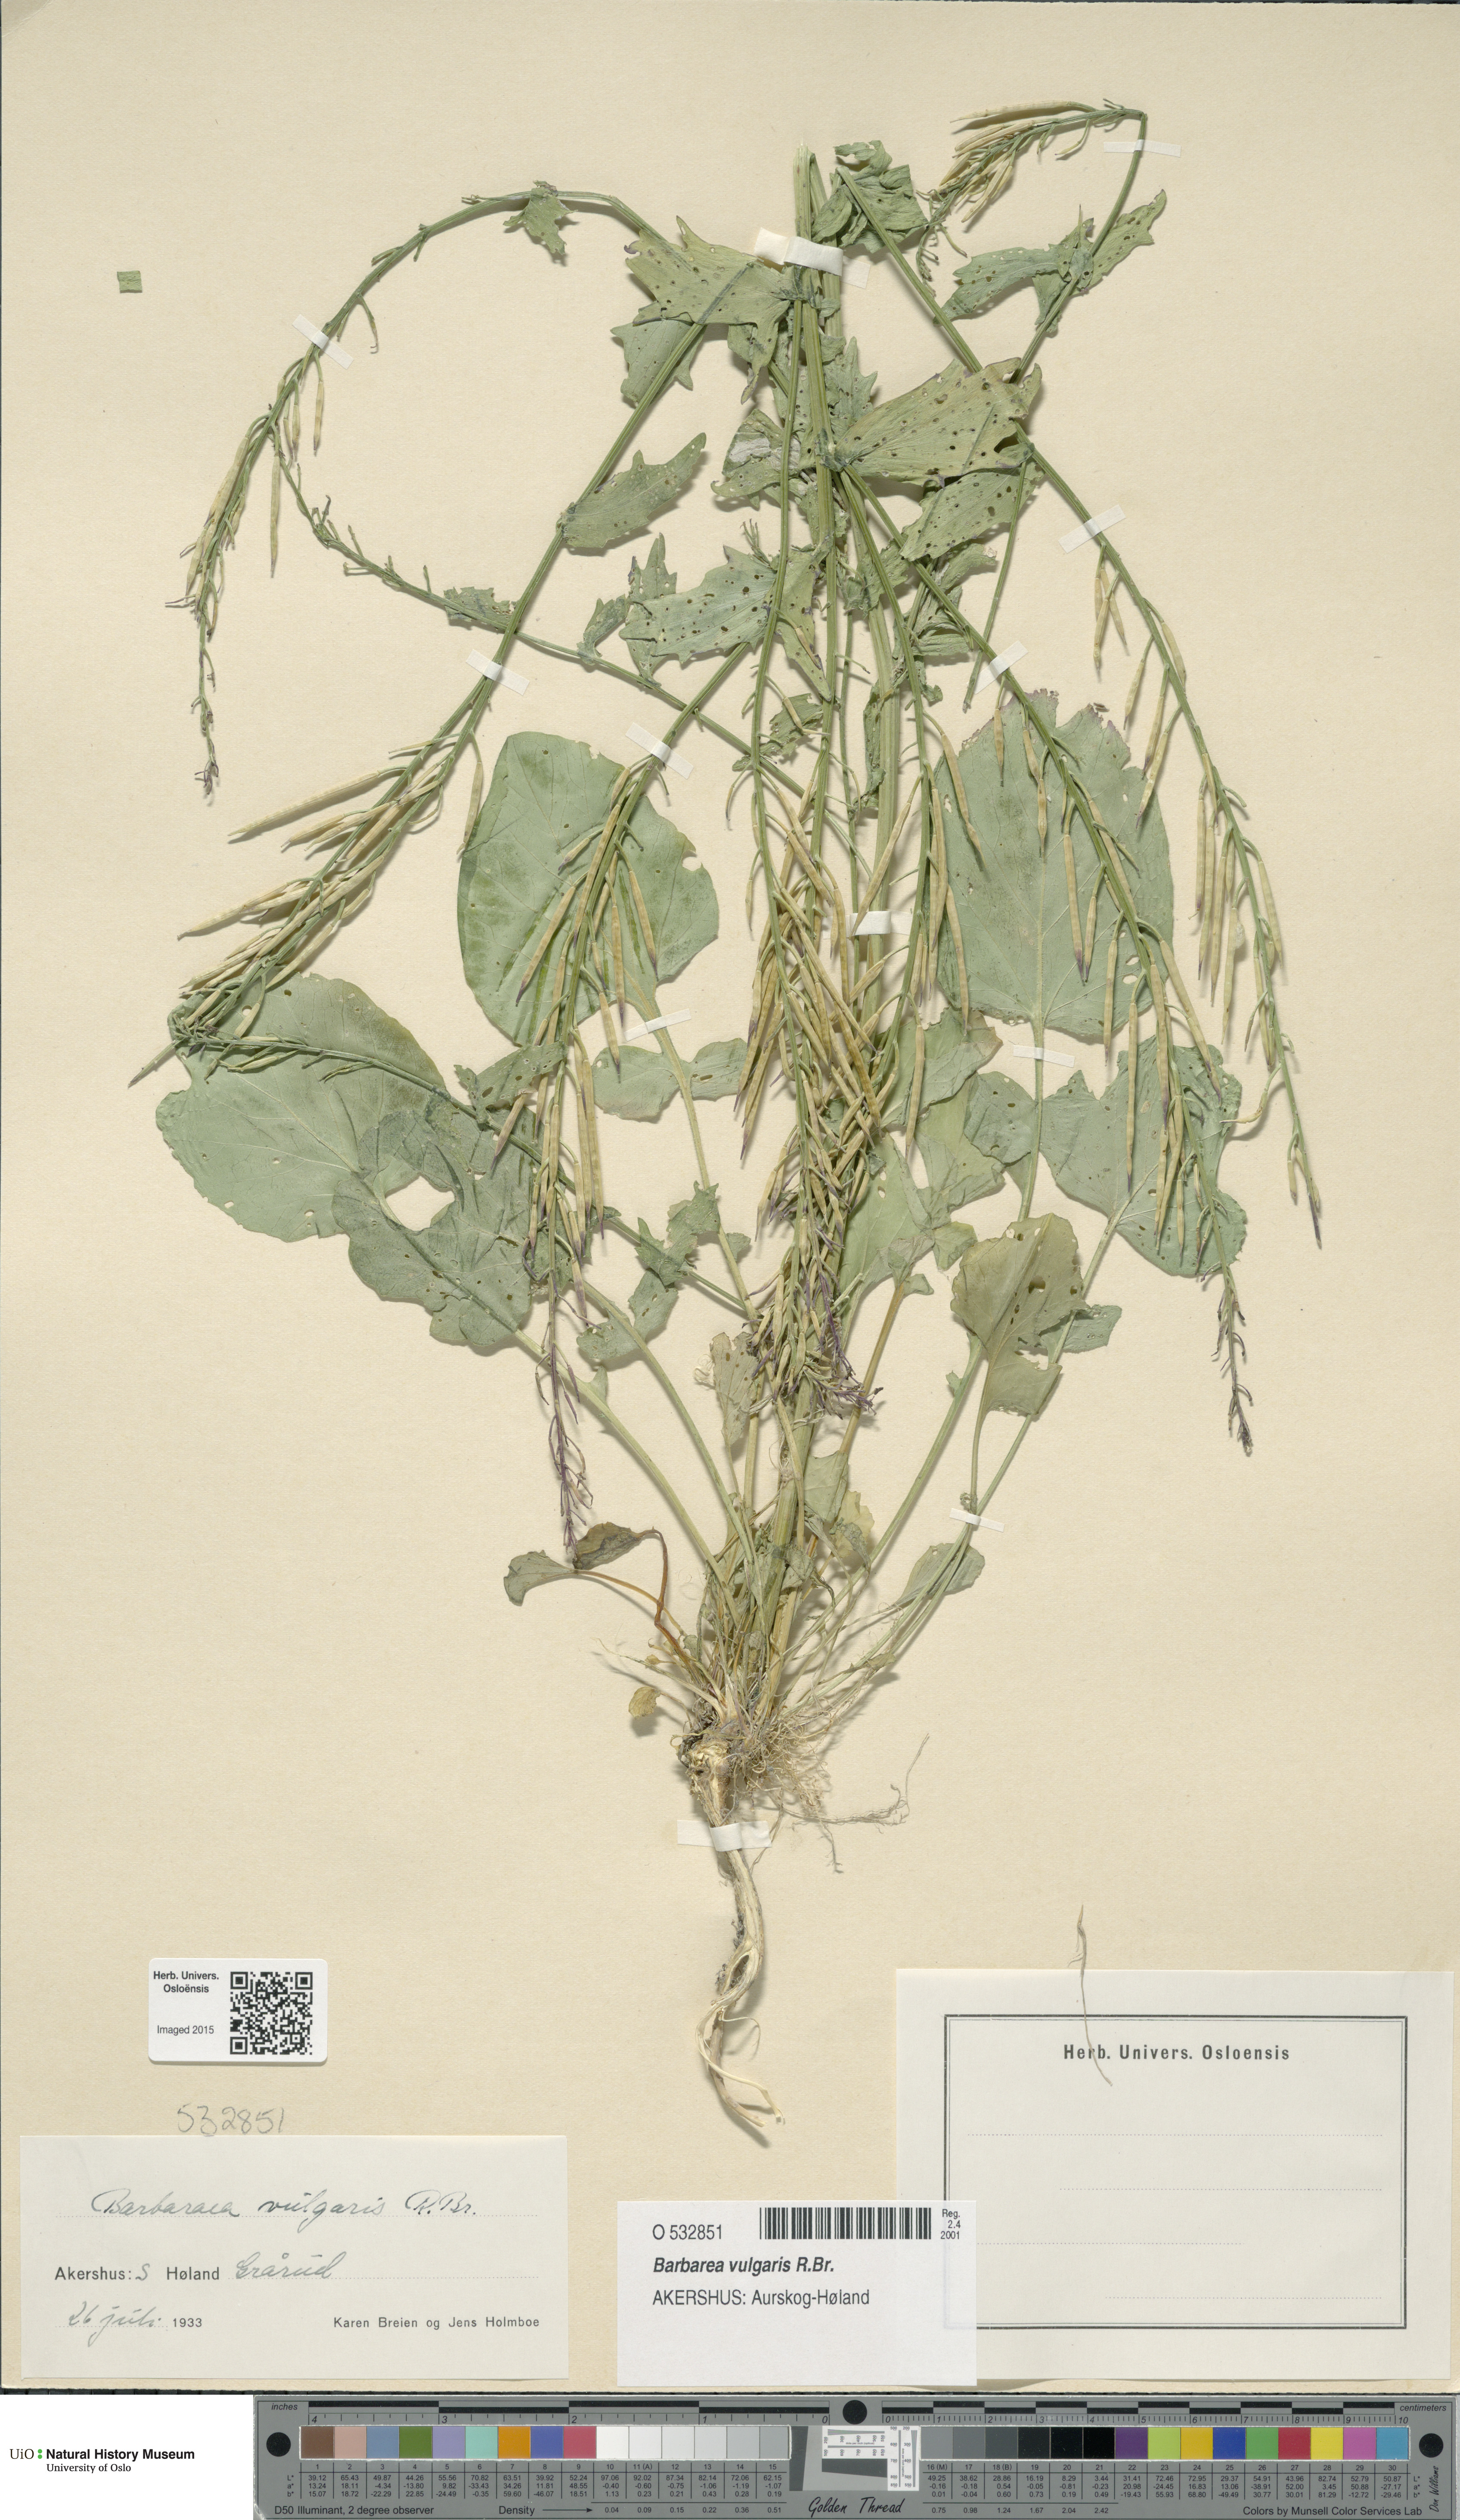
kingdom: Plantae
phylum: Tracheophyta
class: Magnoliopsida
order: Brassicales
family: Brassicaceae
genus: Barbarea
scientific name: Barbarea vulgaris
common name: Cressy-greens
